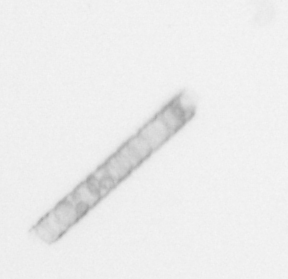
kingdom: Chromista
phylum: Ochrophyta
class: Bacillariophyceae
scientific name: Bacillariophyceae
